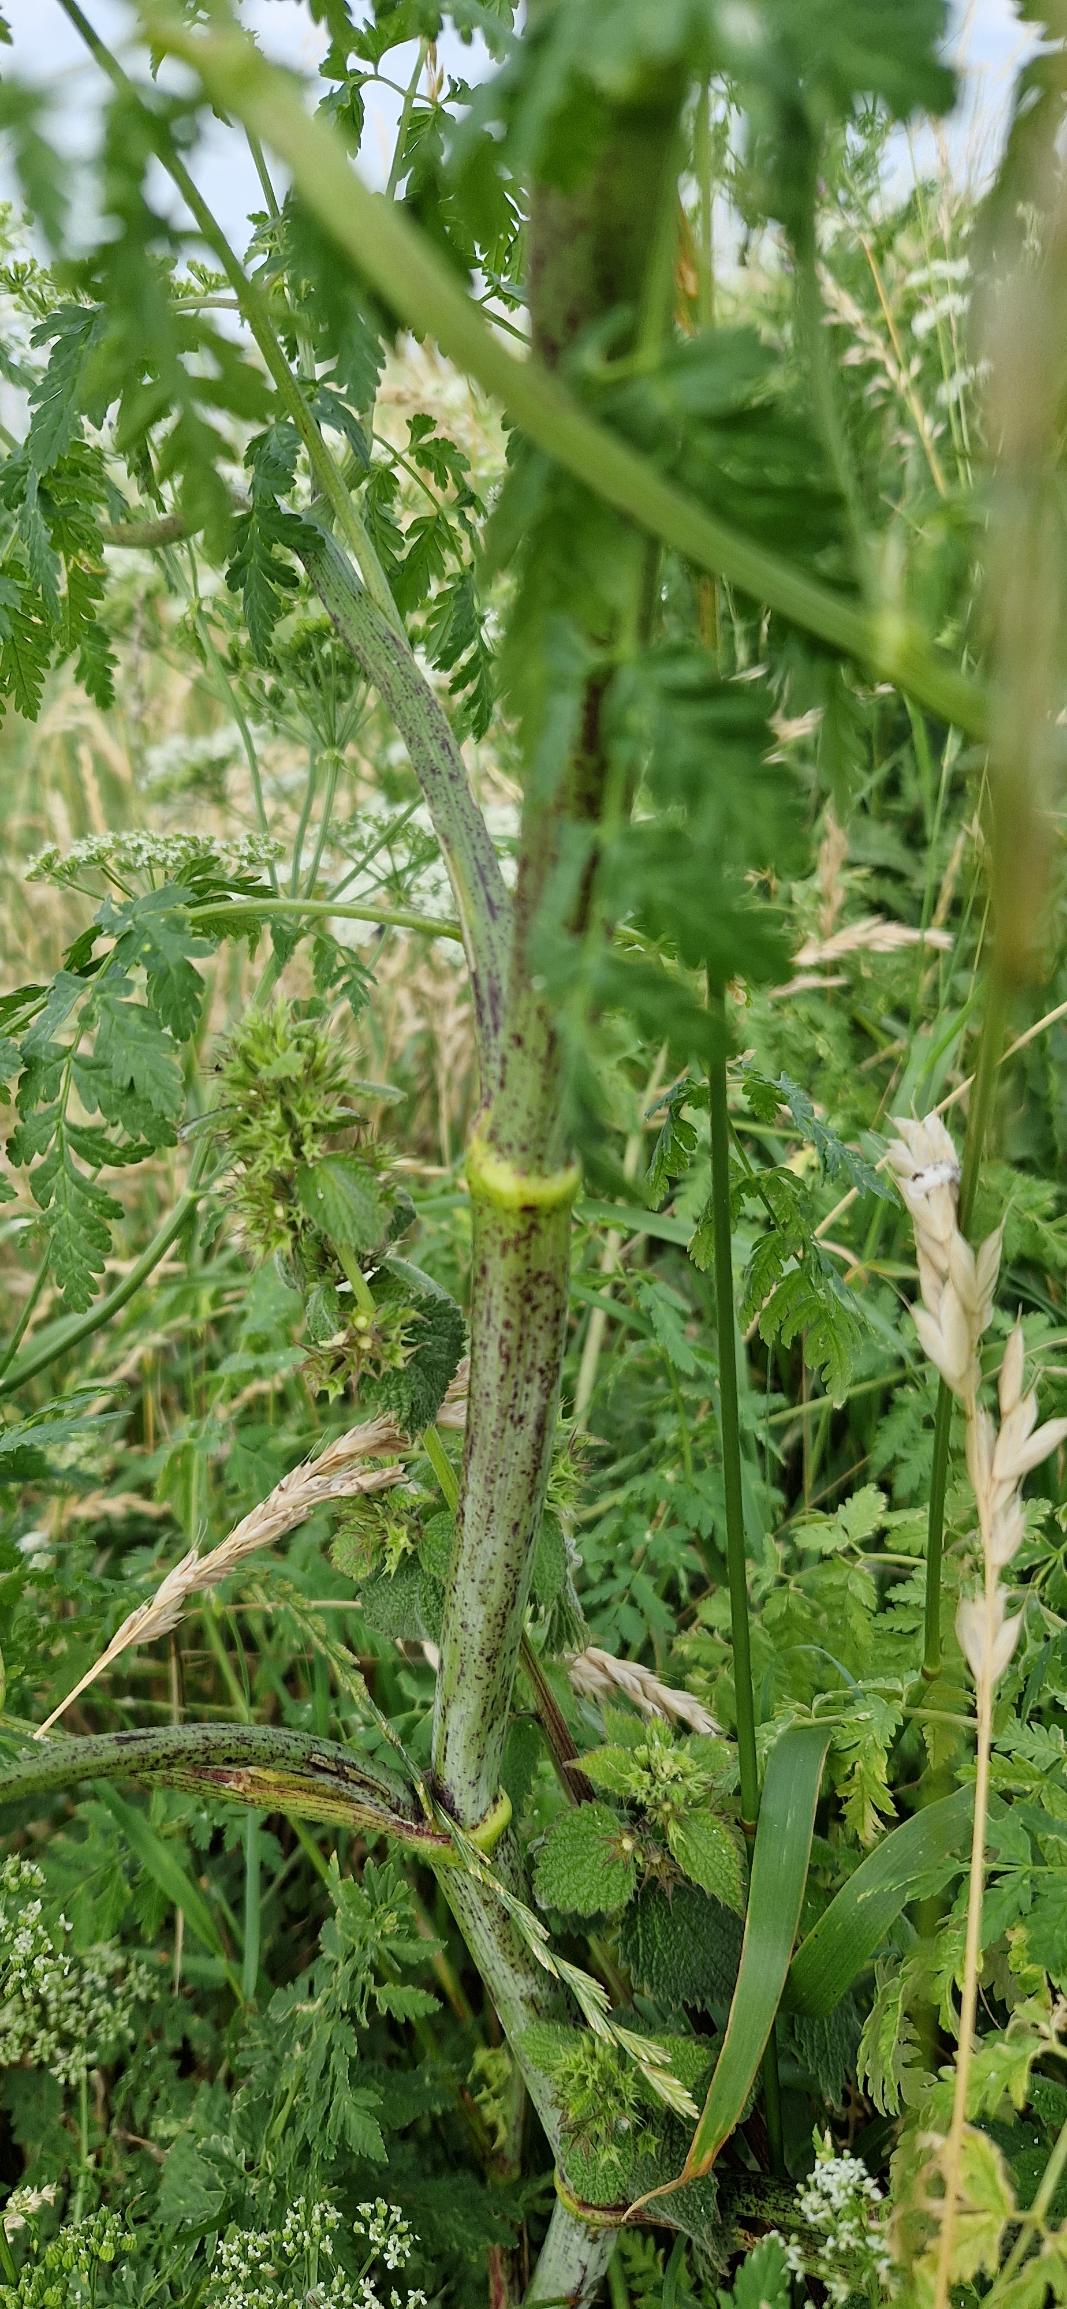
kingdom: Plantae
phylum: Tracheophyta
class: Magnoliopsida
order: Apiales
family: Apiaceae
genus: Conium
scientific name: Conium maculatum
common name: Skarntyde
